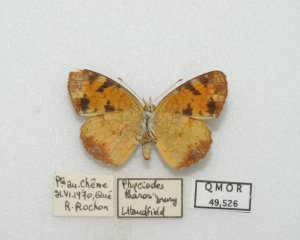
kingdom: Animalia
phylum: Arthropoda
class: Insecta
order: Lepidoptera
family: Nymphalidae
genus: Phyciodes
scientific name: Phyciodes tharos
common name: Northern Crescent
